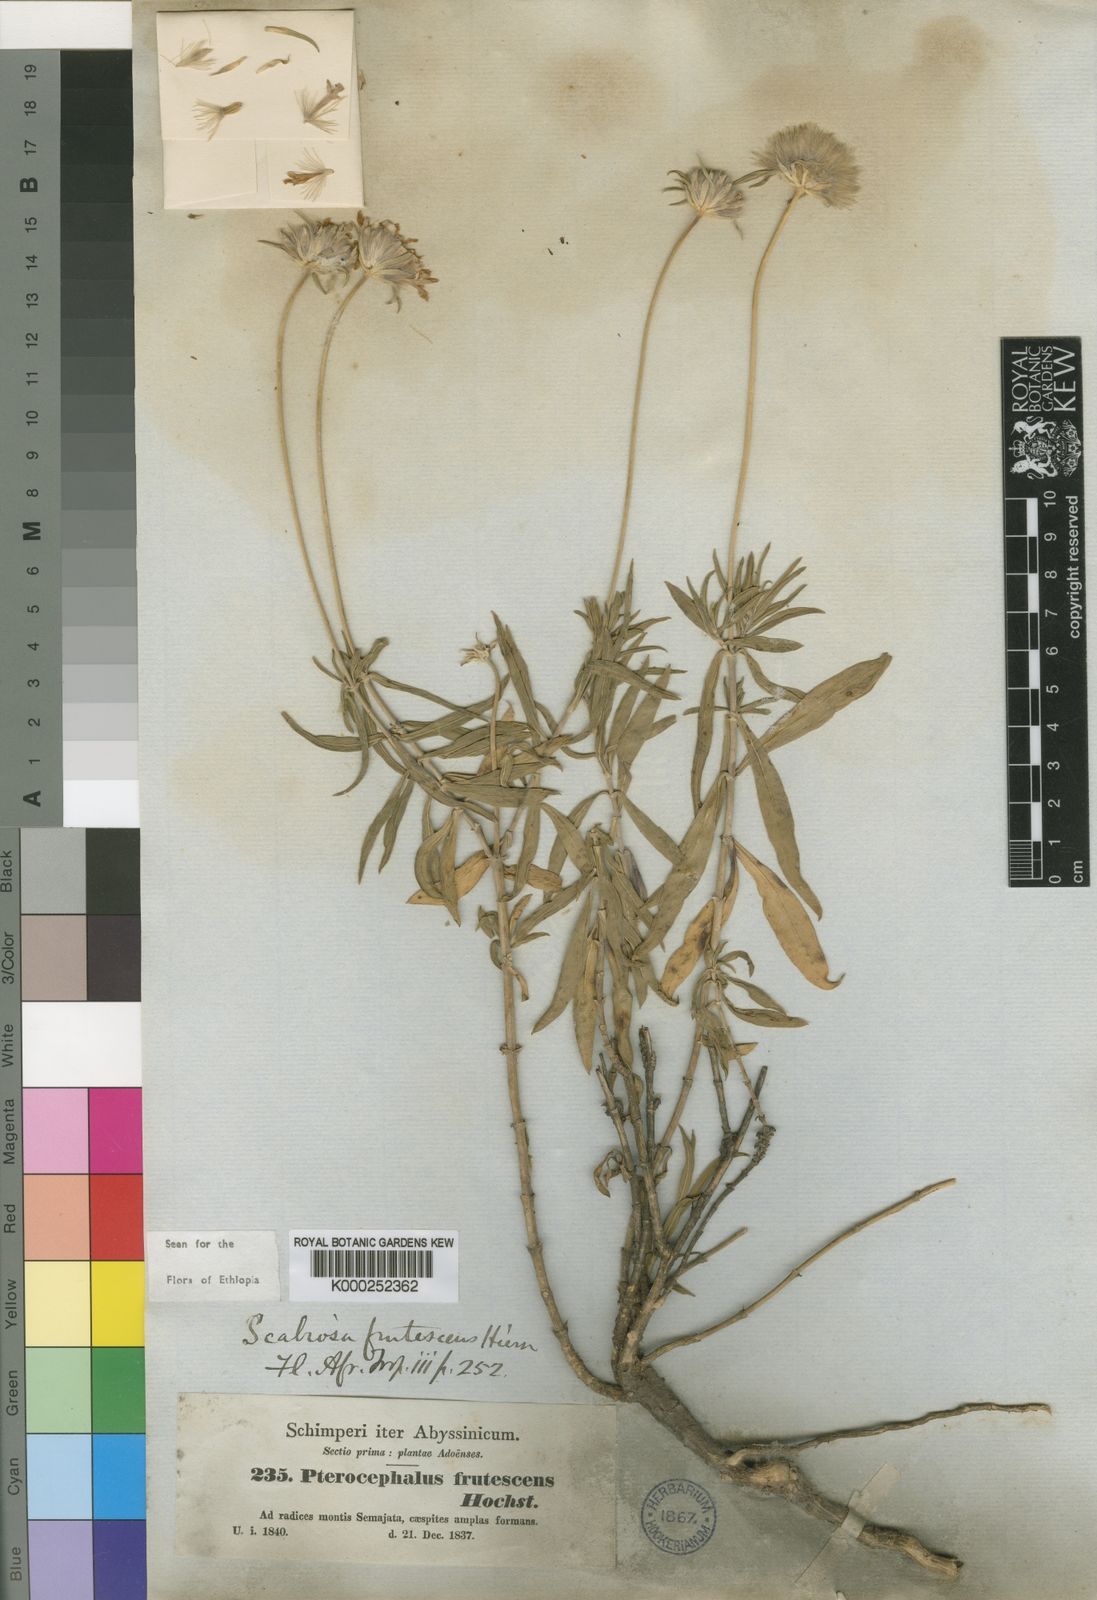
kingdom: Plantae
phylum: Tracheophyta
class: Magnoliopsida
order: Dipsacales
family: Caprifoliaceae
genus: Pterocephalus
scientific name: Pterocephalus
